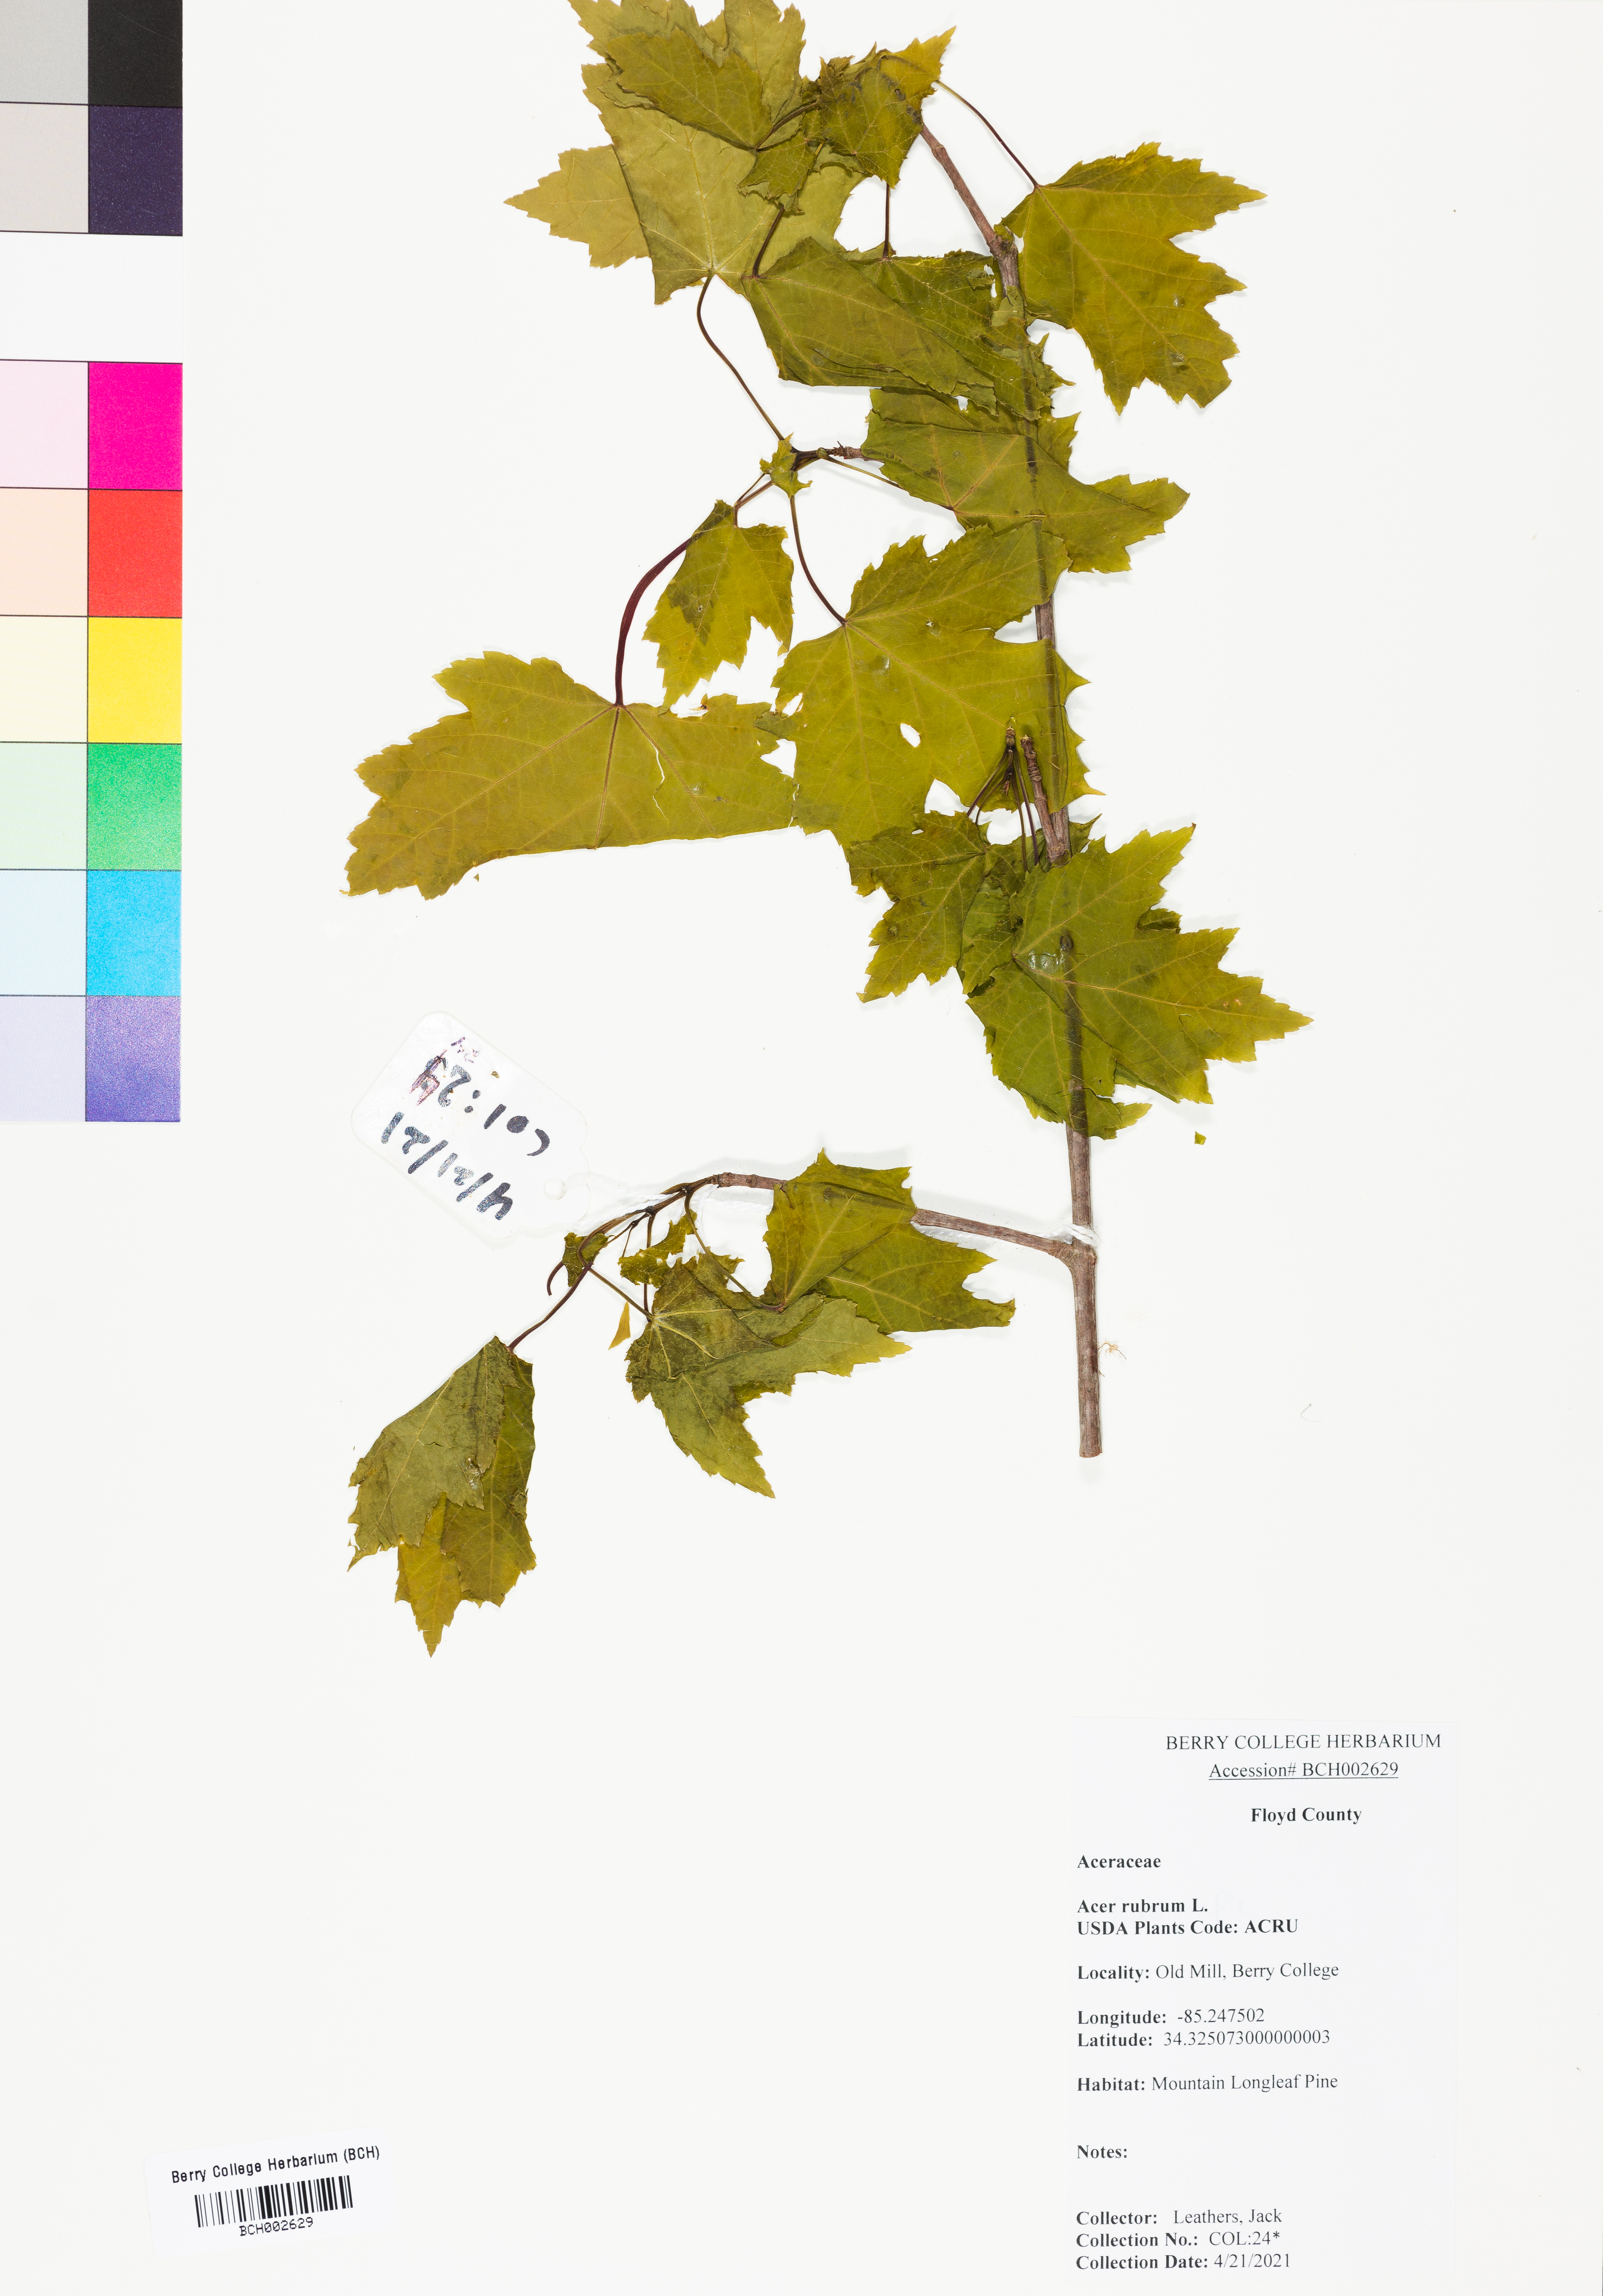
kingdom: Plantae
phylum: Tracheophyta
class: Magnoliopsida
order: Sapindales
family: Sapindaceae
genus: Acer
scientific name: Acer rubrum
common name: Red maple
